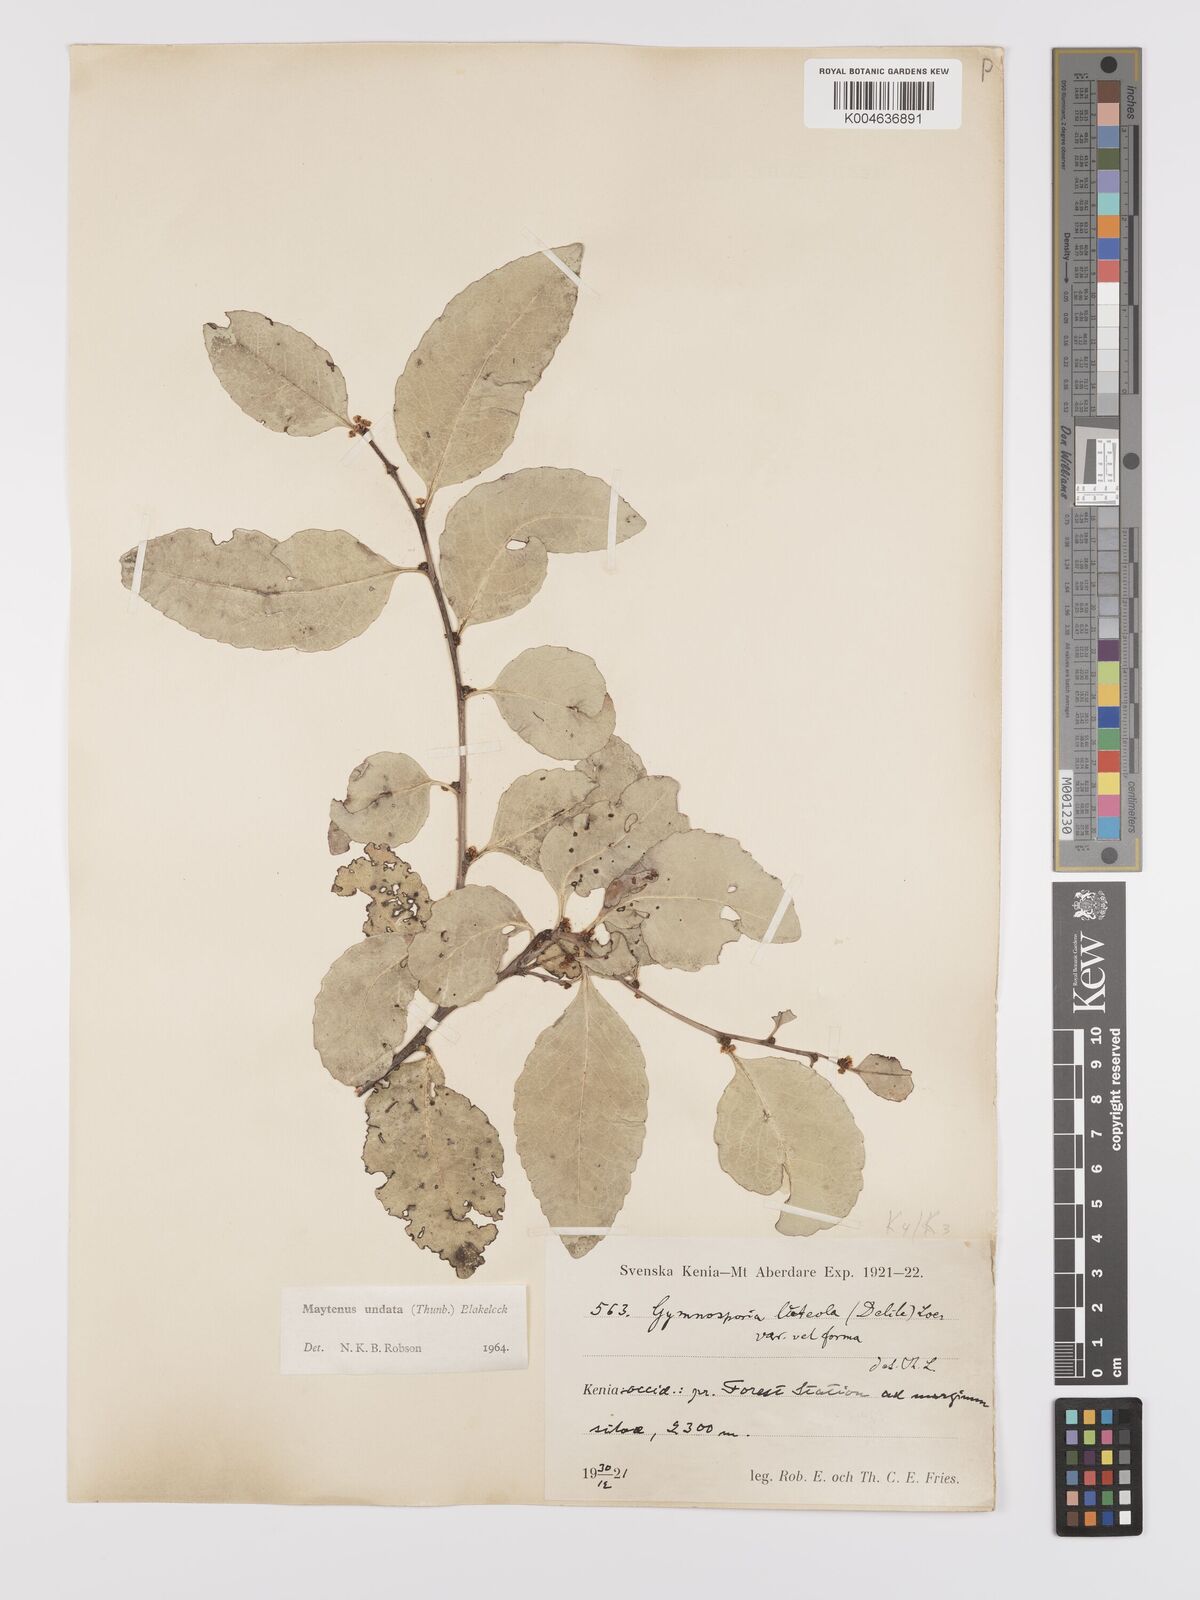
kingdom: Plantae
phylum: Tracheophyta
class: Magnoliopsida
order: Celastrales
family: Celastraceae
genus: Gymnosporia
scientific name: Gymnosporia undata
